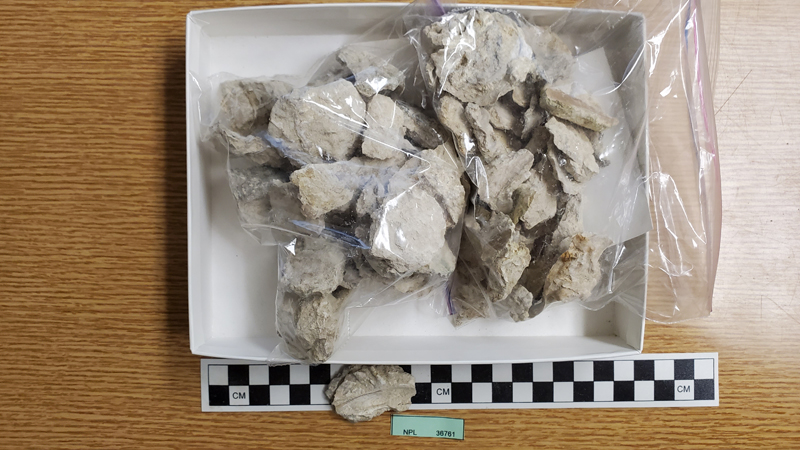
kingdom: Animalia
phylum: Mollusca
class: Bivalvia
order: Ostreida
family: Ostreidae
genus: Lopha
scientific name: Lopha
